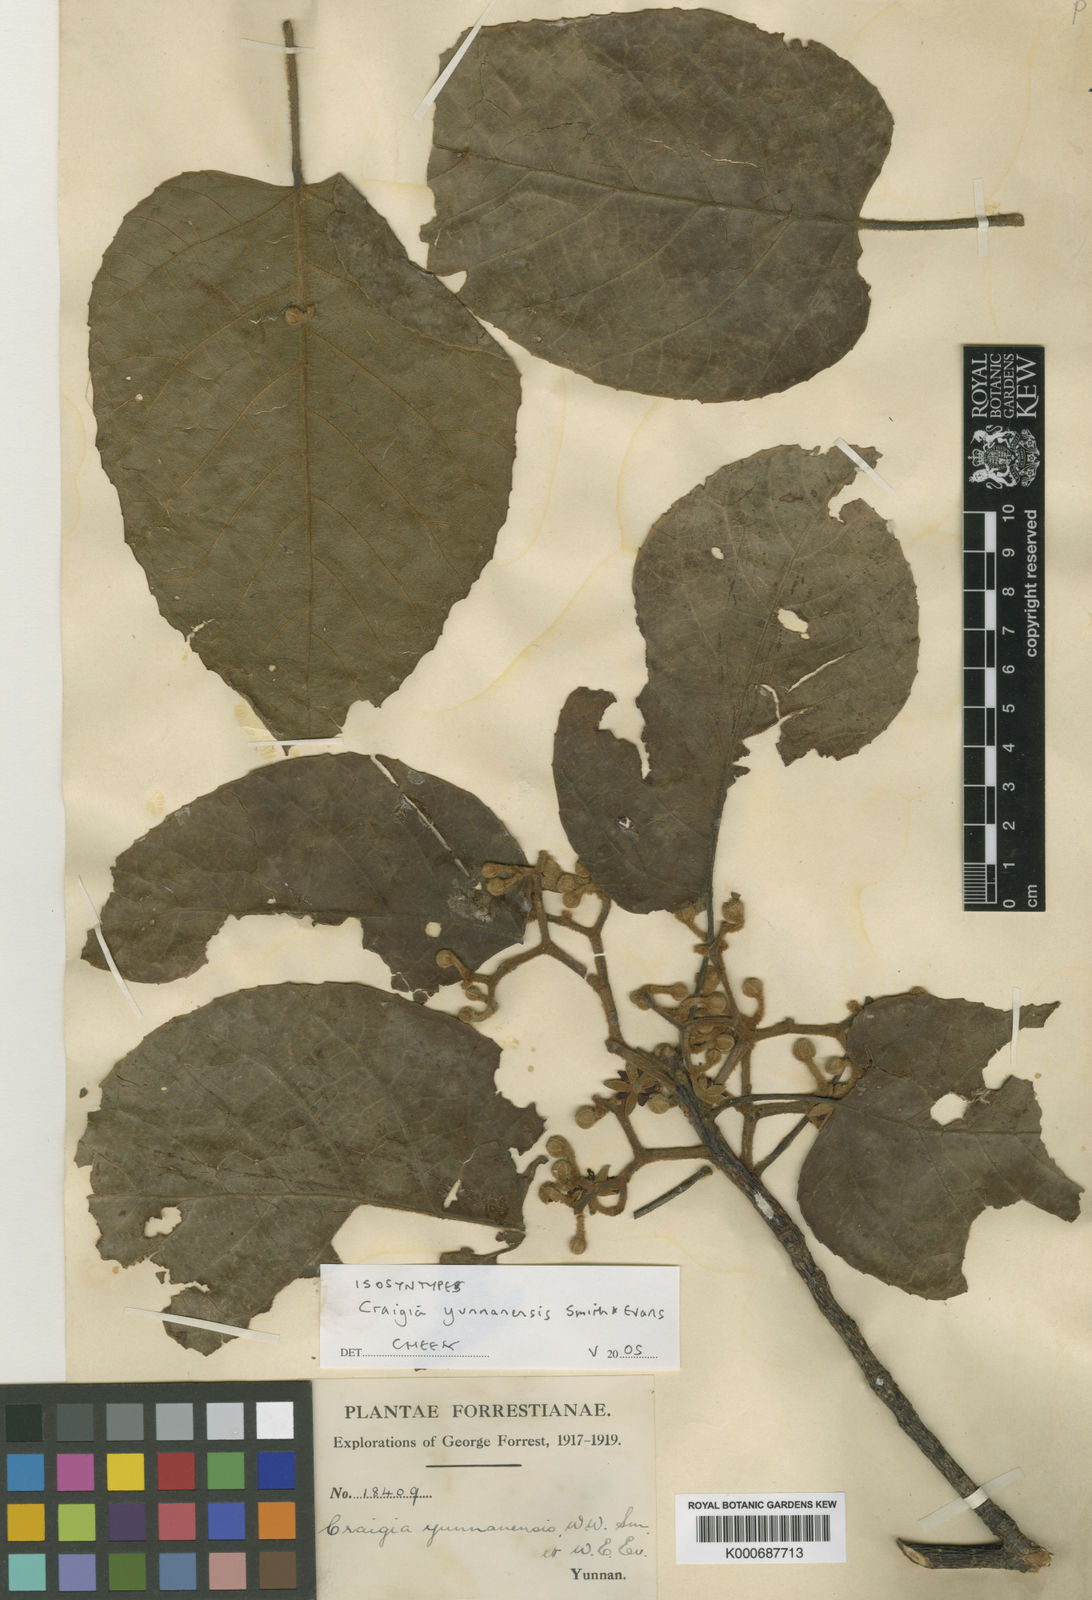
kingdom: Plantae
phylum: Tracheophyta
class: Magnoliopsida
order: Malvales
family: Malvaceae
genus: Craigia
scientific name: Craigia yunnanensis
